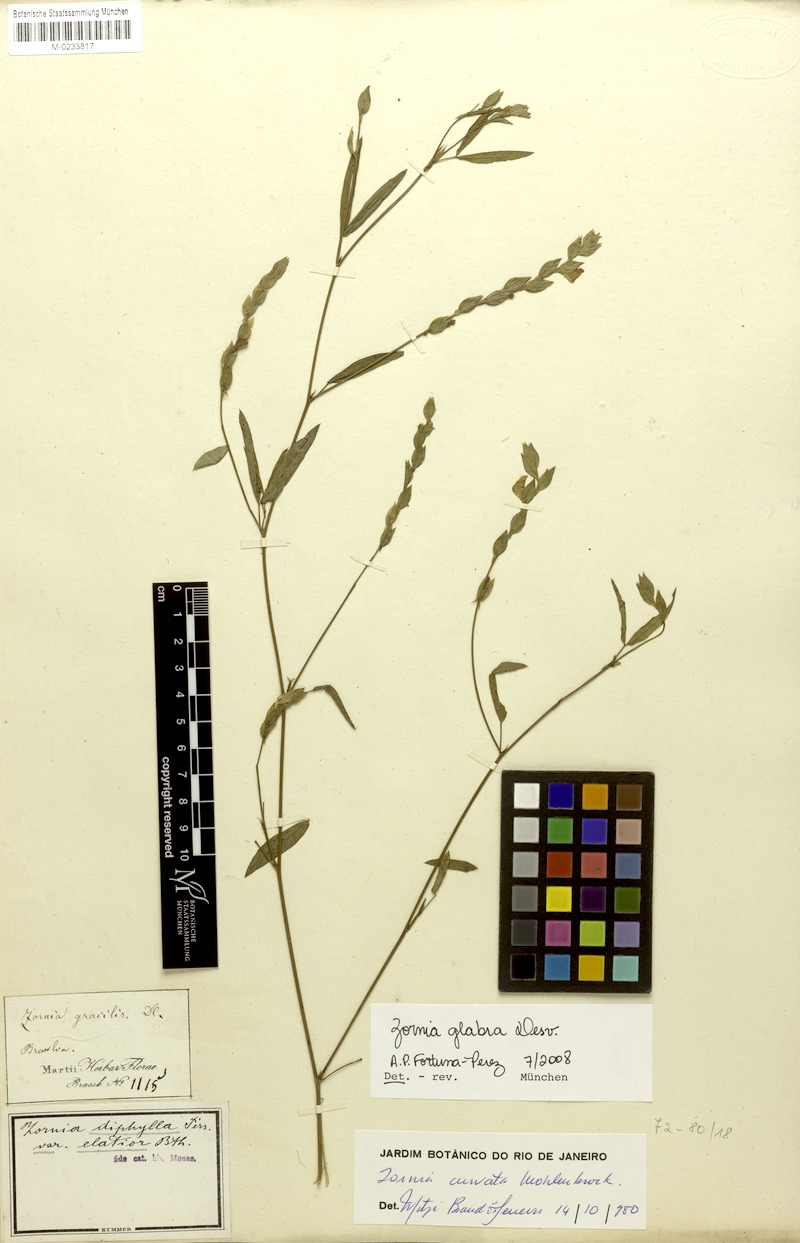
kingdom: Plantae
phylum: Tracheophyta
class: Magnoliopsida
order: Fabales
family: Fabaceae
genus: Zornia
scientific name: Zornia glabra
